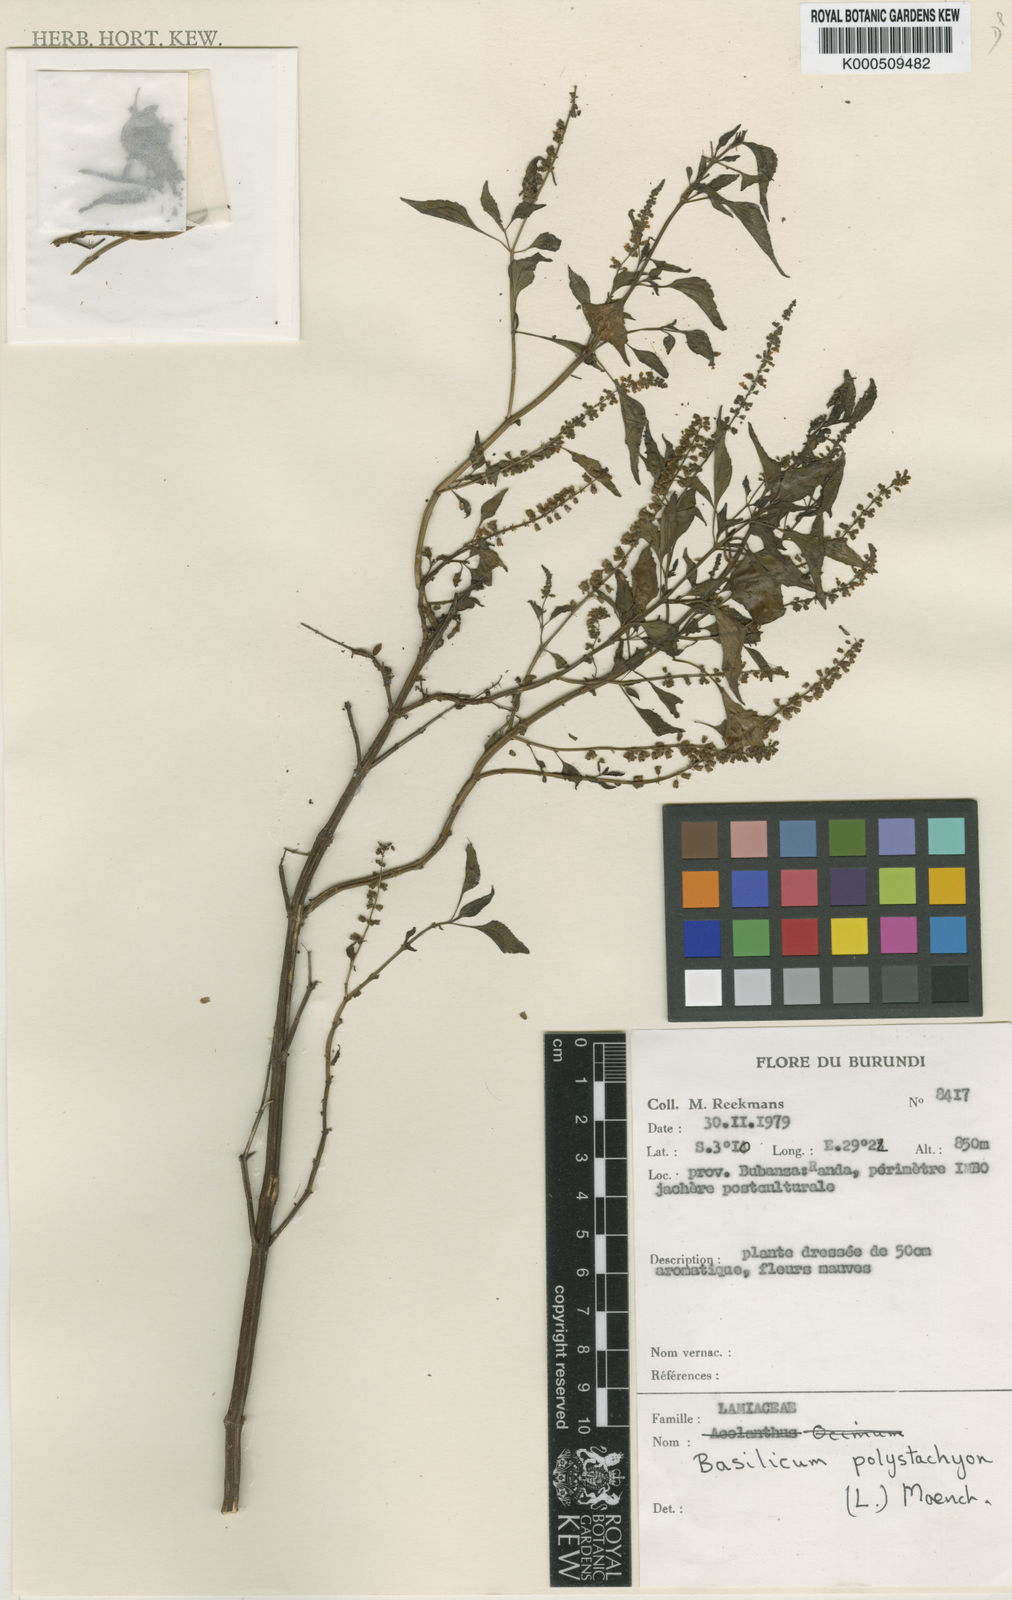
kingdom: Plantae
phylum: Tracheophyta
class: Magnoliopsida
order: Lamiales
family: Lamiaceae
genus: Basilicum
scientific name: Basilicum polystachyon
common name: Musk-basil
